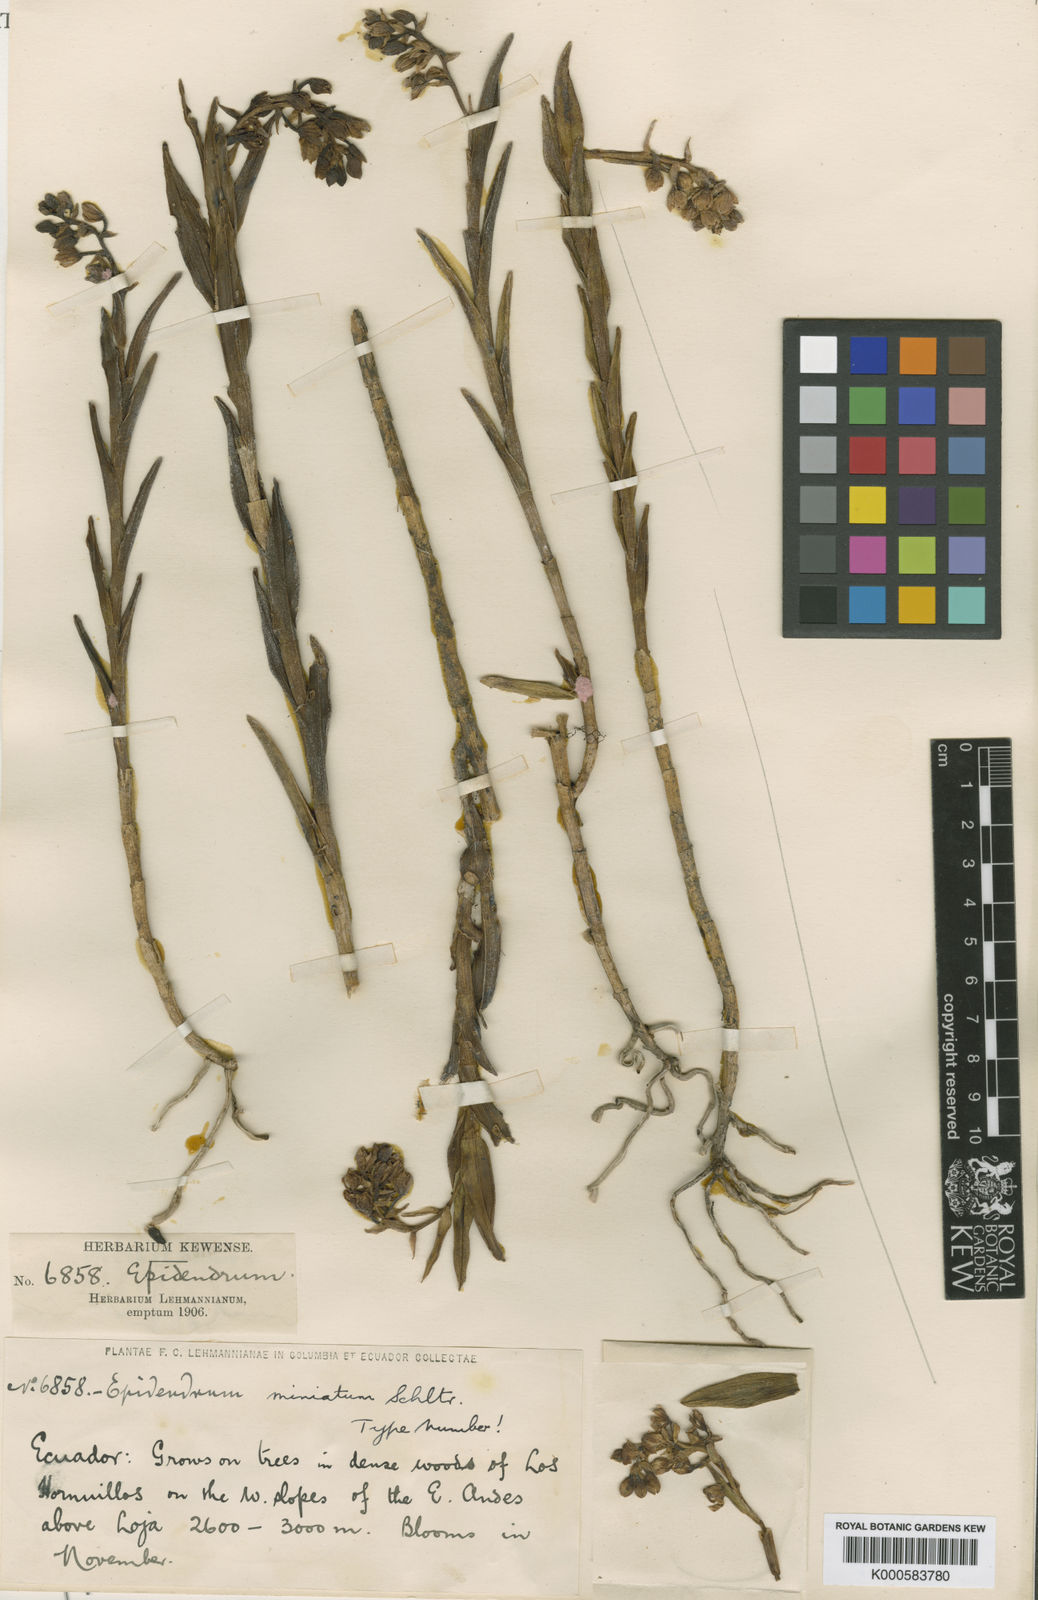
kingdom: Plantae
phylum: Tracheophyta
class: Liliopsida
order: Asparagales
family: Orchidaceae
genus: Epidendrum
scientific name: Epidendrum miniatum
